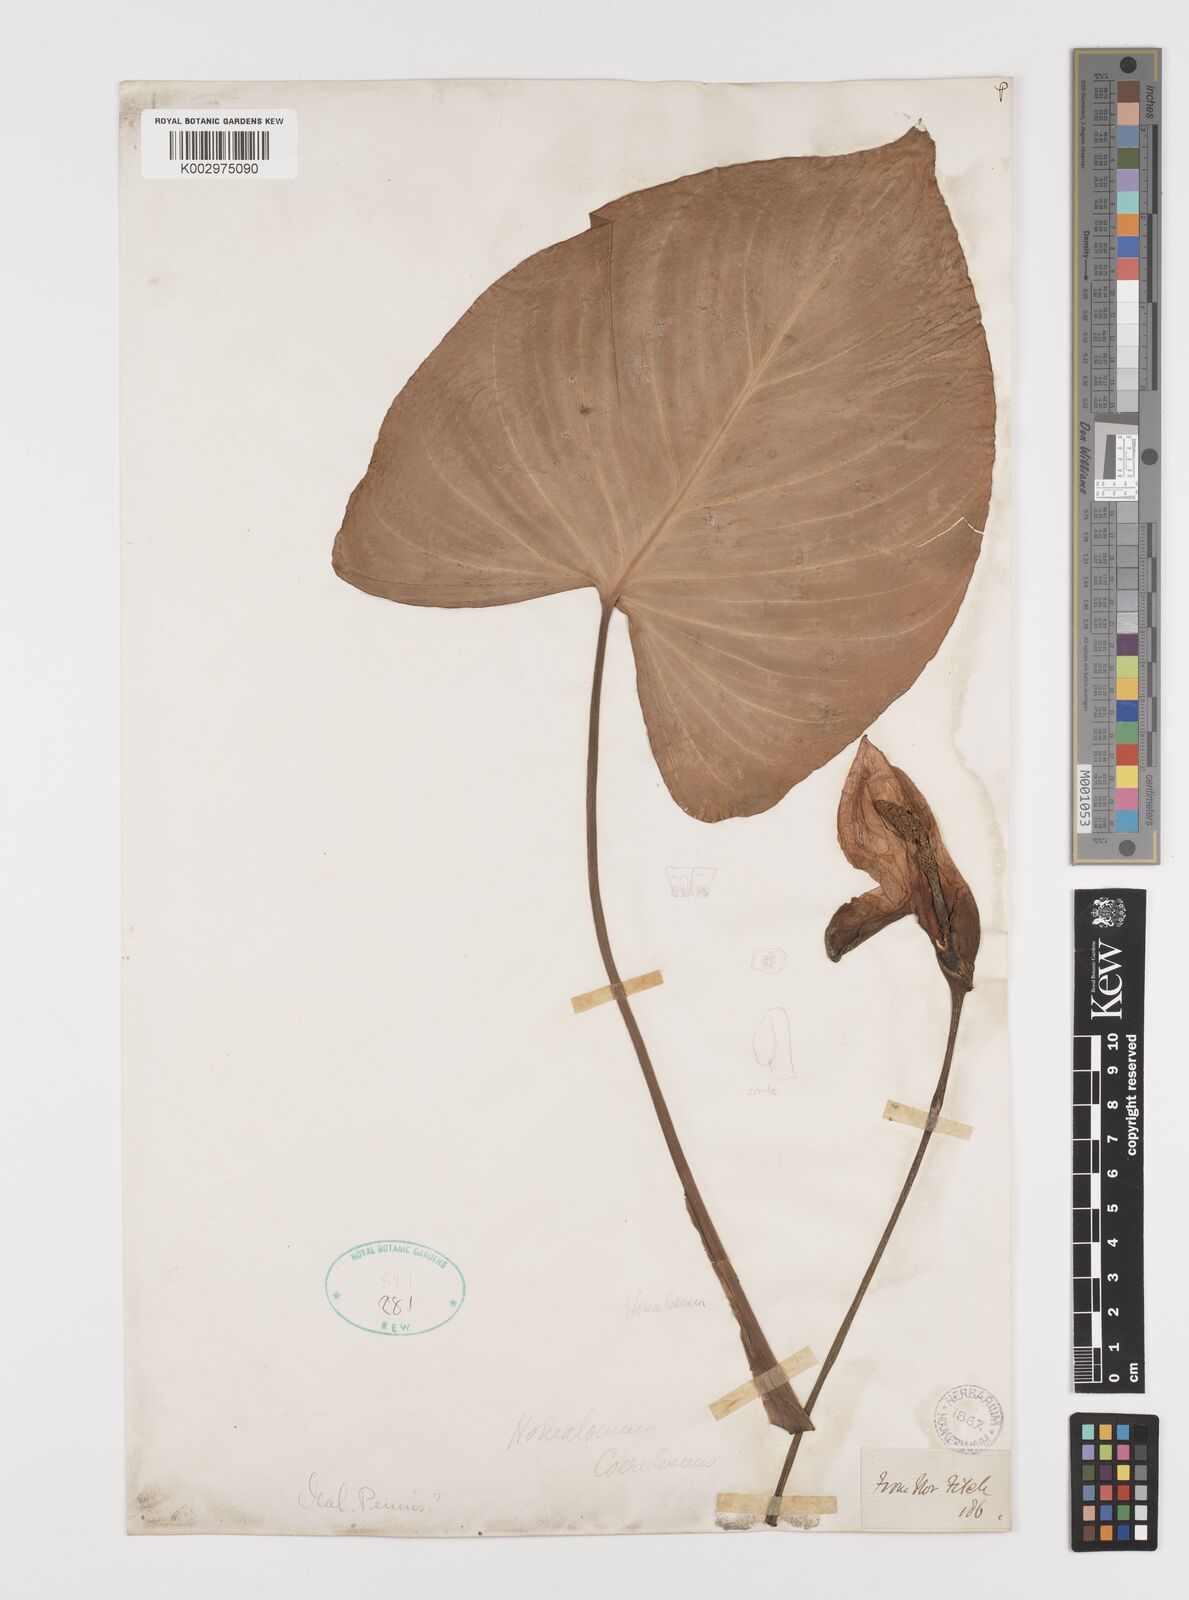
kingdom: Plantae
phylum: Tracheophyta
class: Liliopsida
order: Alismatales
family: Araceae
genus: Homalomena
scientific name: Homalomena pendula
